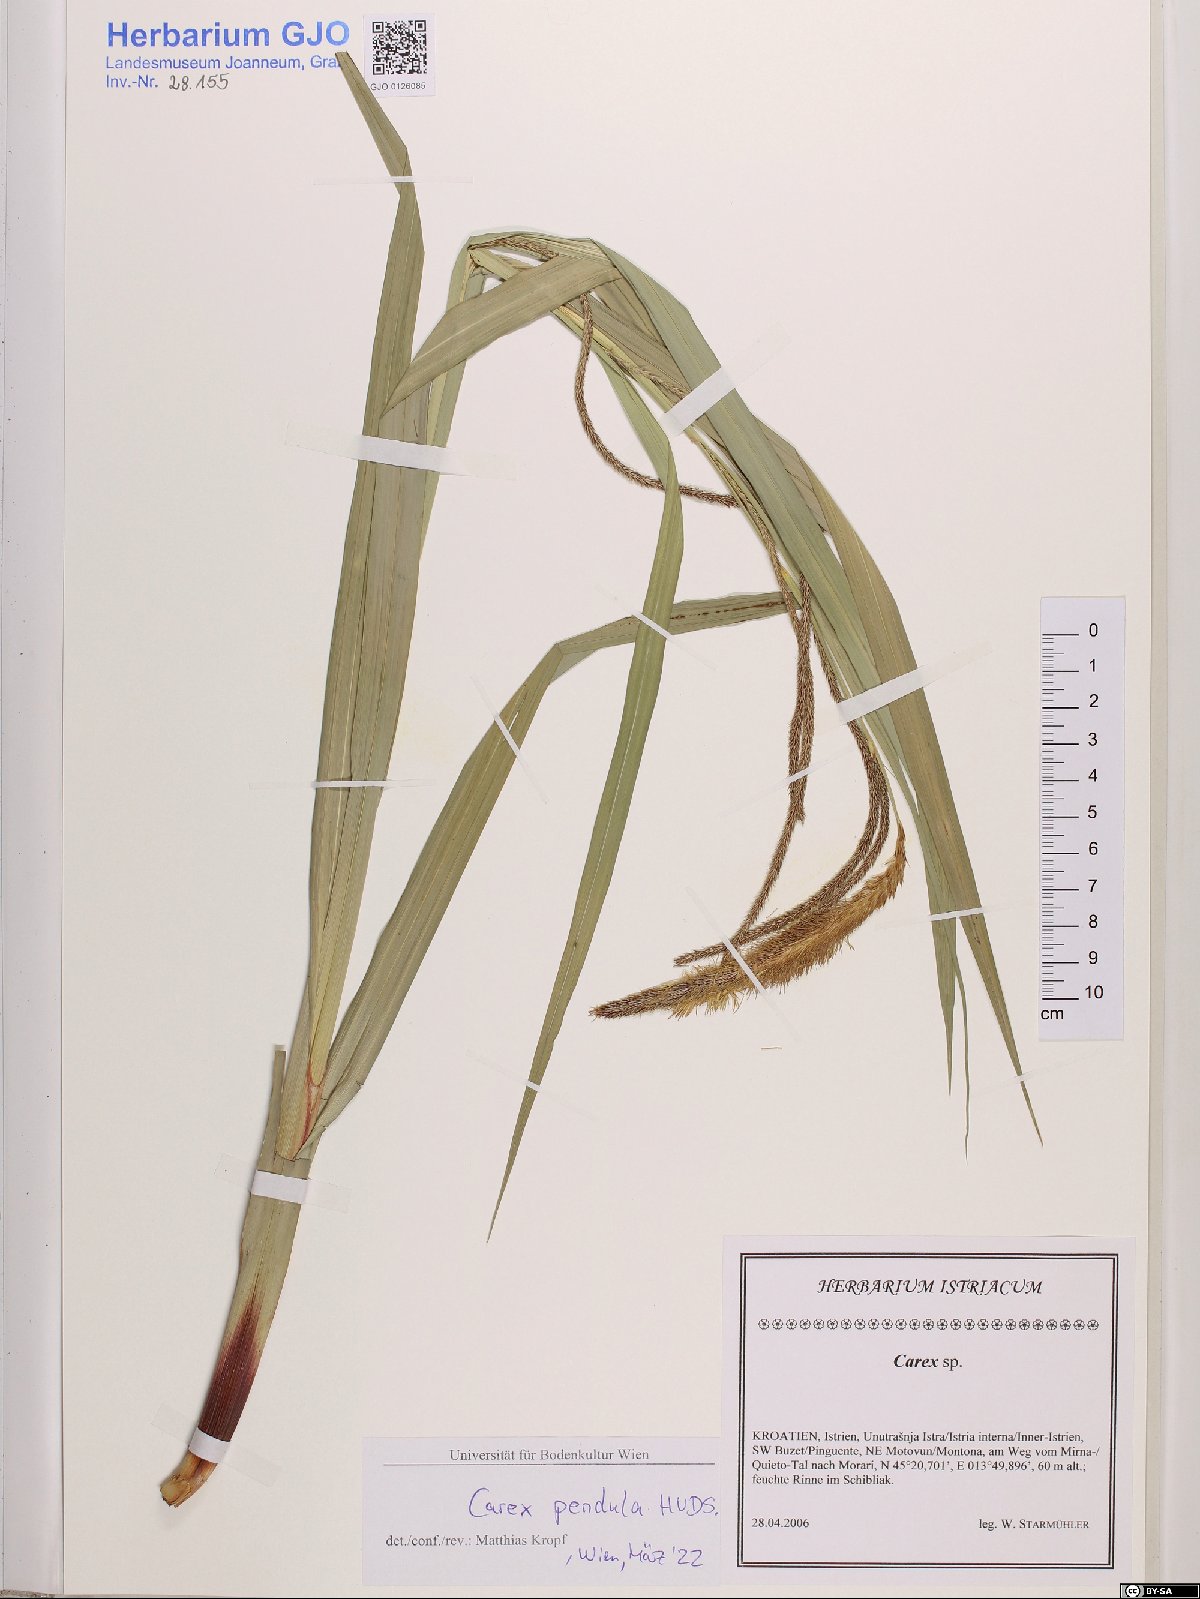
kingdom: Plantae
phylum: Tracheophyta
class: Liliopsida
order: Poales
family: Cyperaceae
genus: Carex
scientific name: Carex pendula
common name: Pendulous sedge
